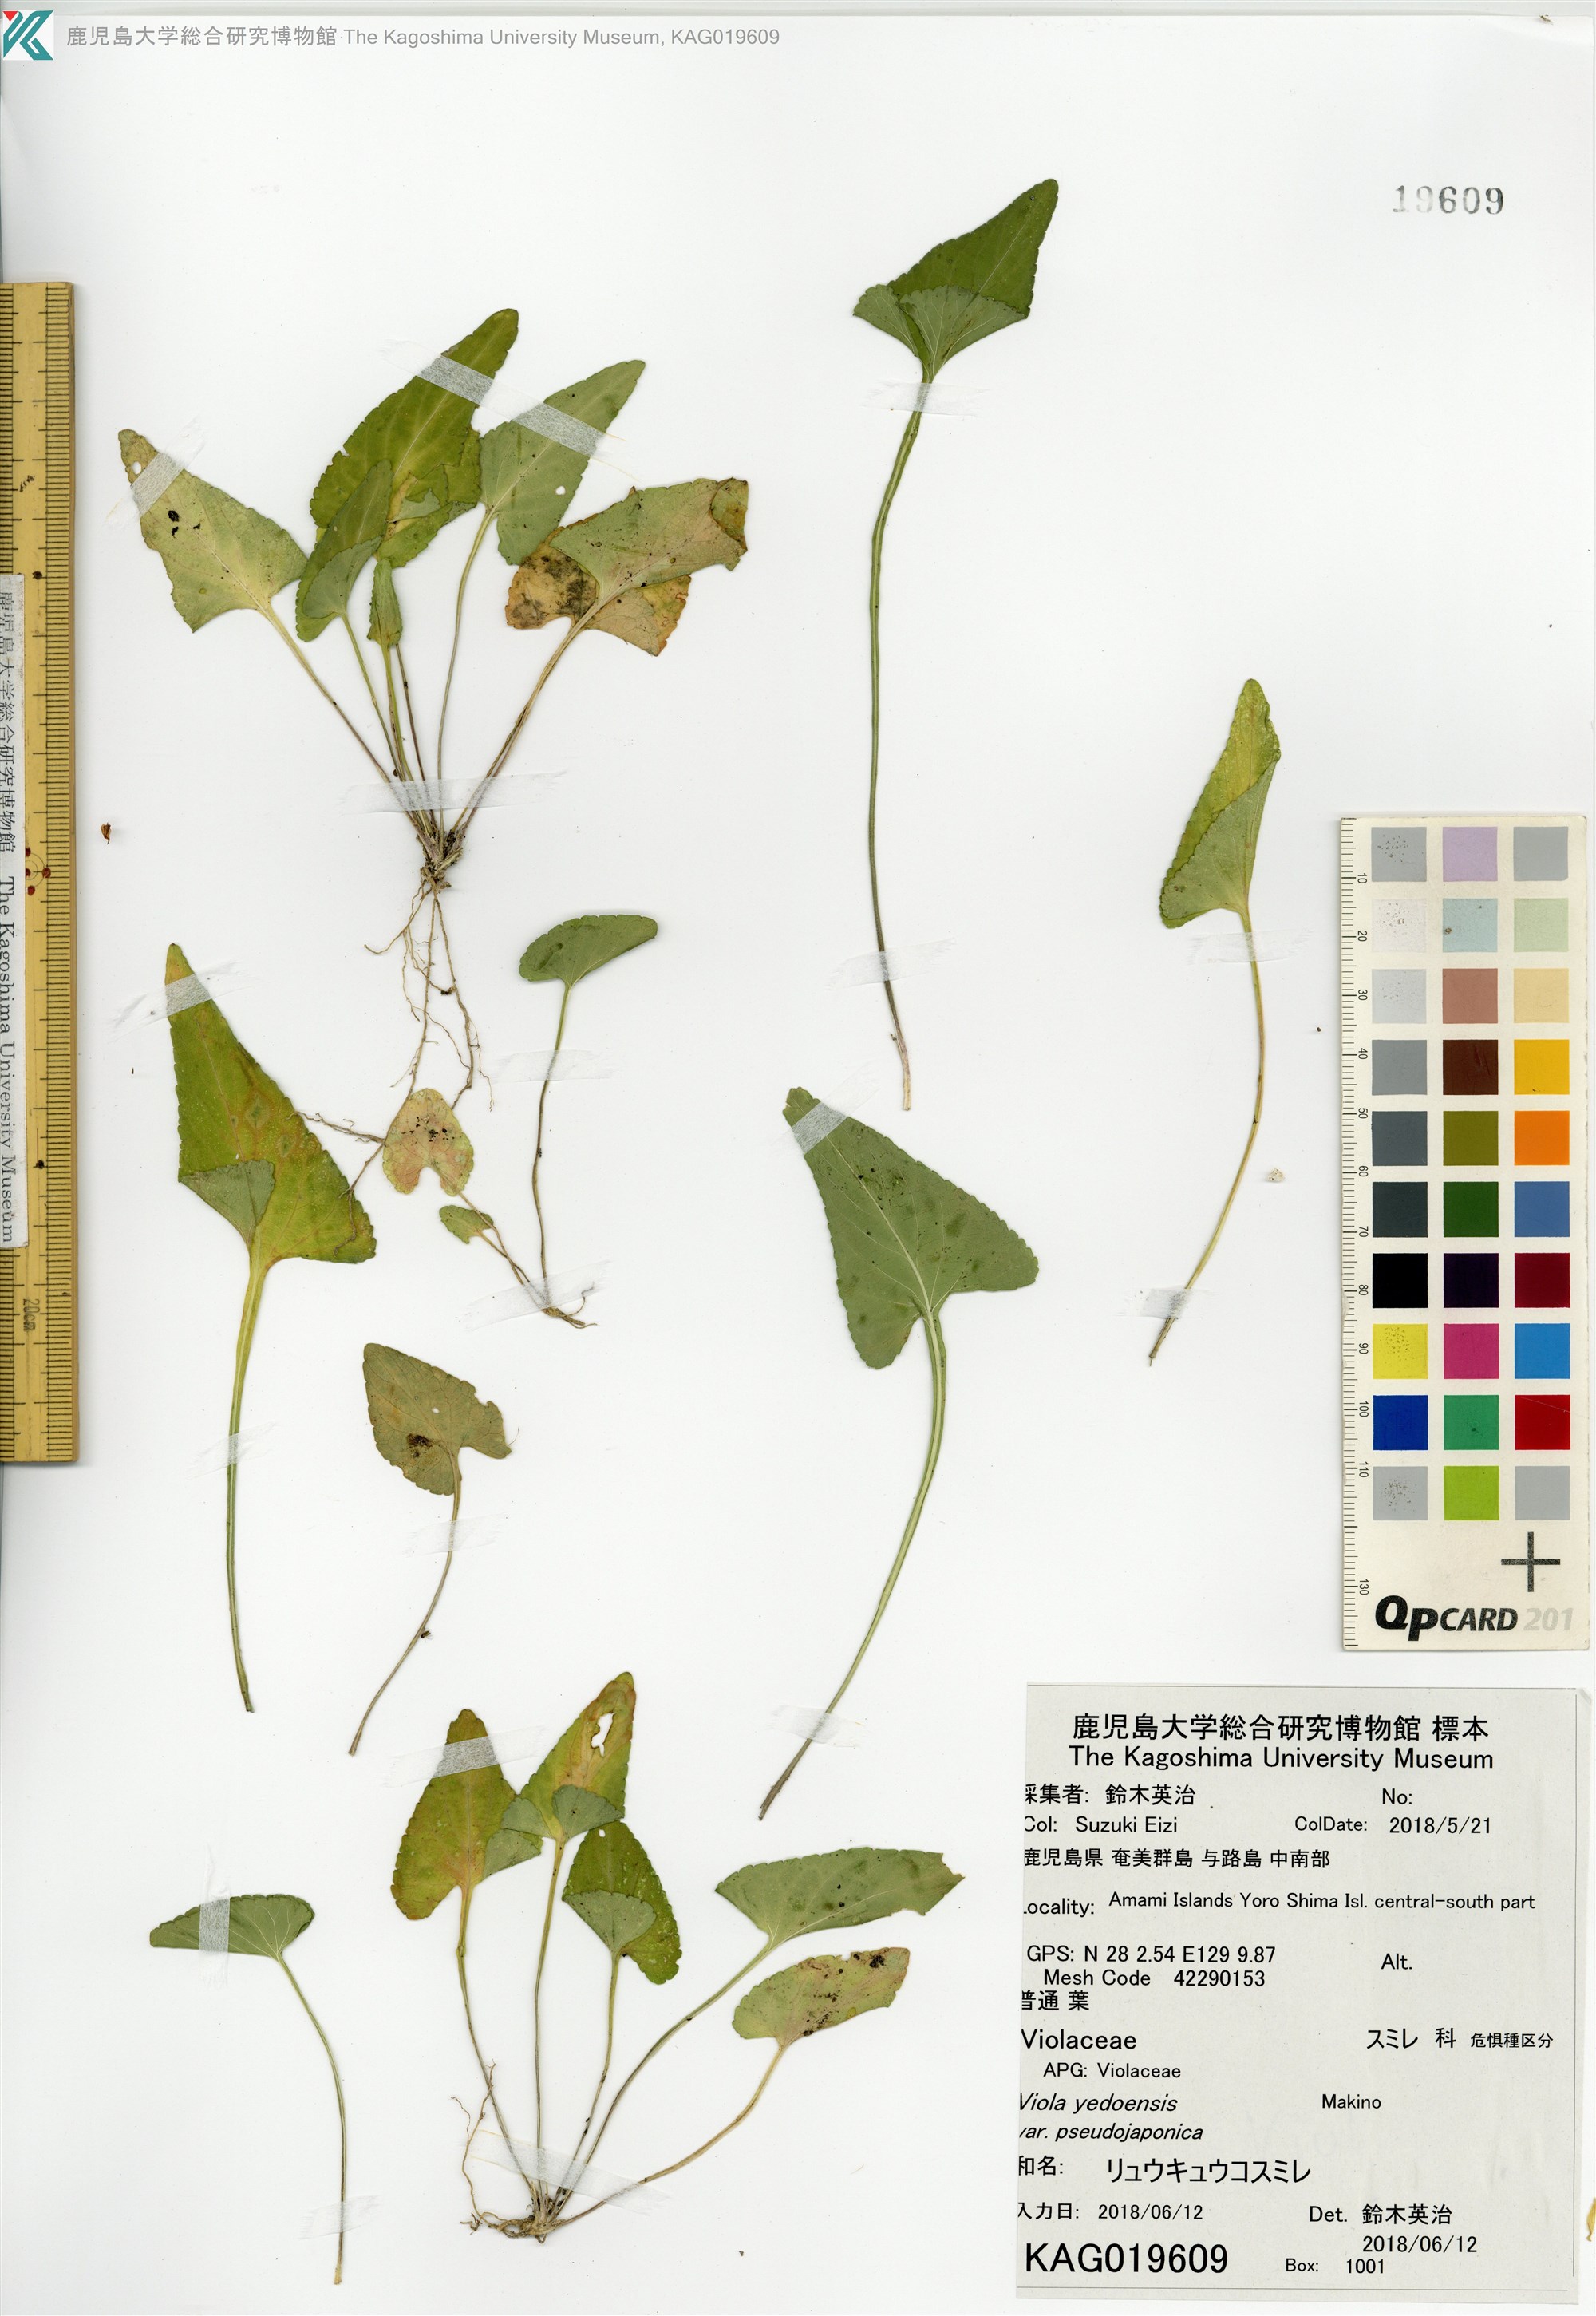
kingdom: Plantae
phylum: Tracheophyta
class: Magnoliopsida
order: Malpighiales
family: Violaceae
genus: Viola
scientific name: Viola philippica
